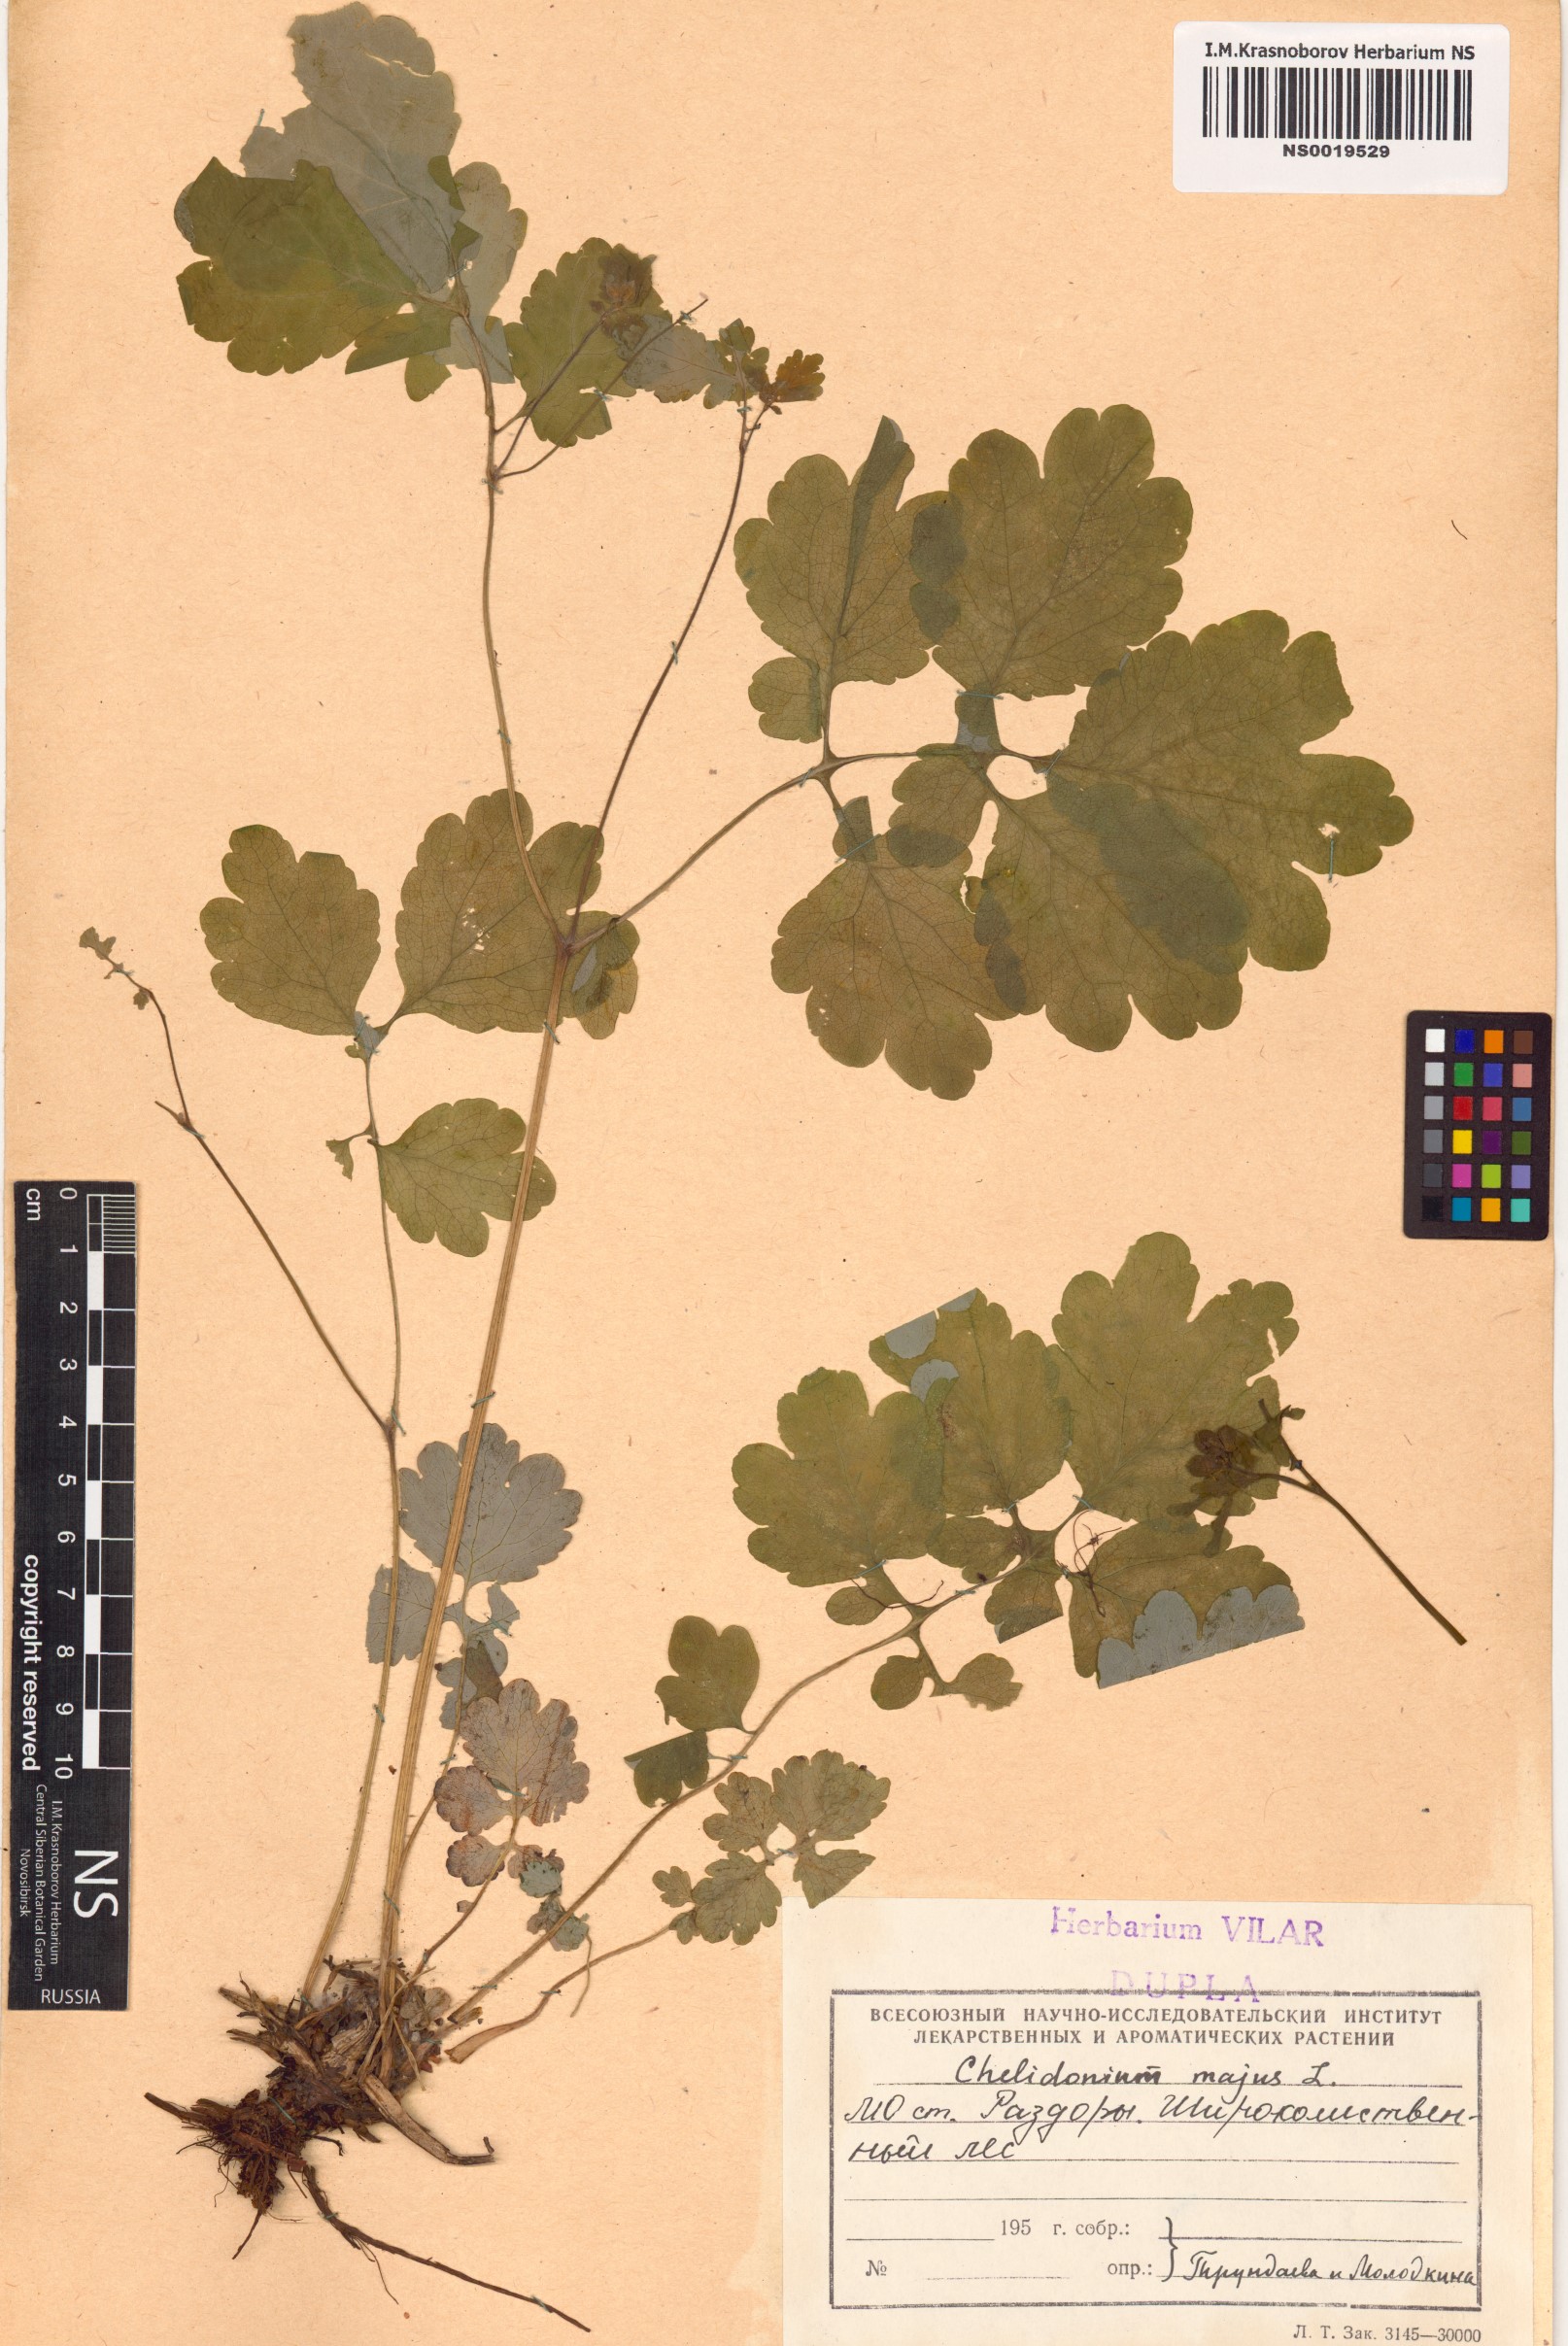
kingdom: Plantae
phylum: Tracheophyta
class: Magnoliopsida
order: Ranunculales
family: Papaveraceae
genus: Chelidonium
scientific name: Chelidonium majus
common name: Greater celandine
